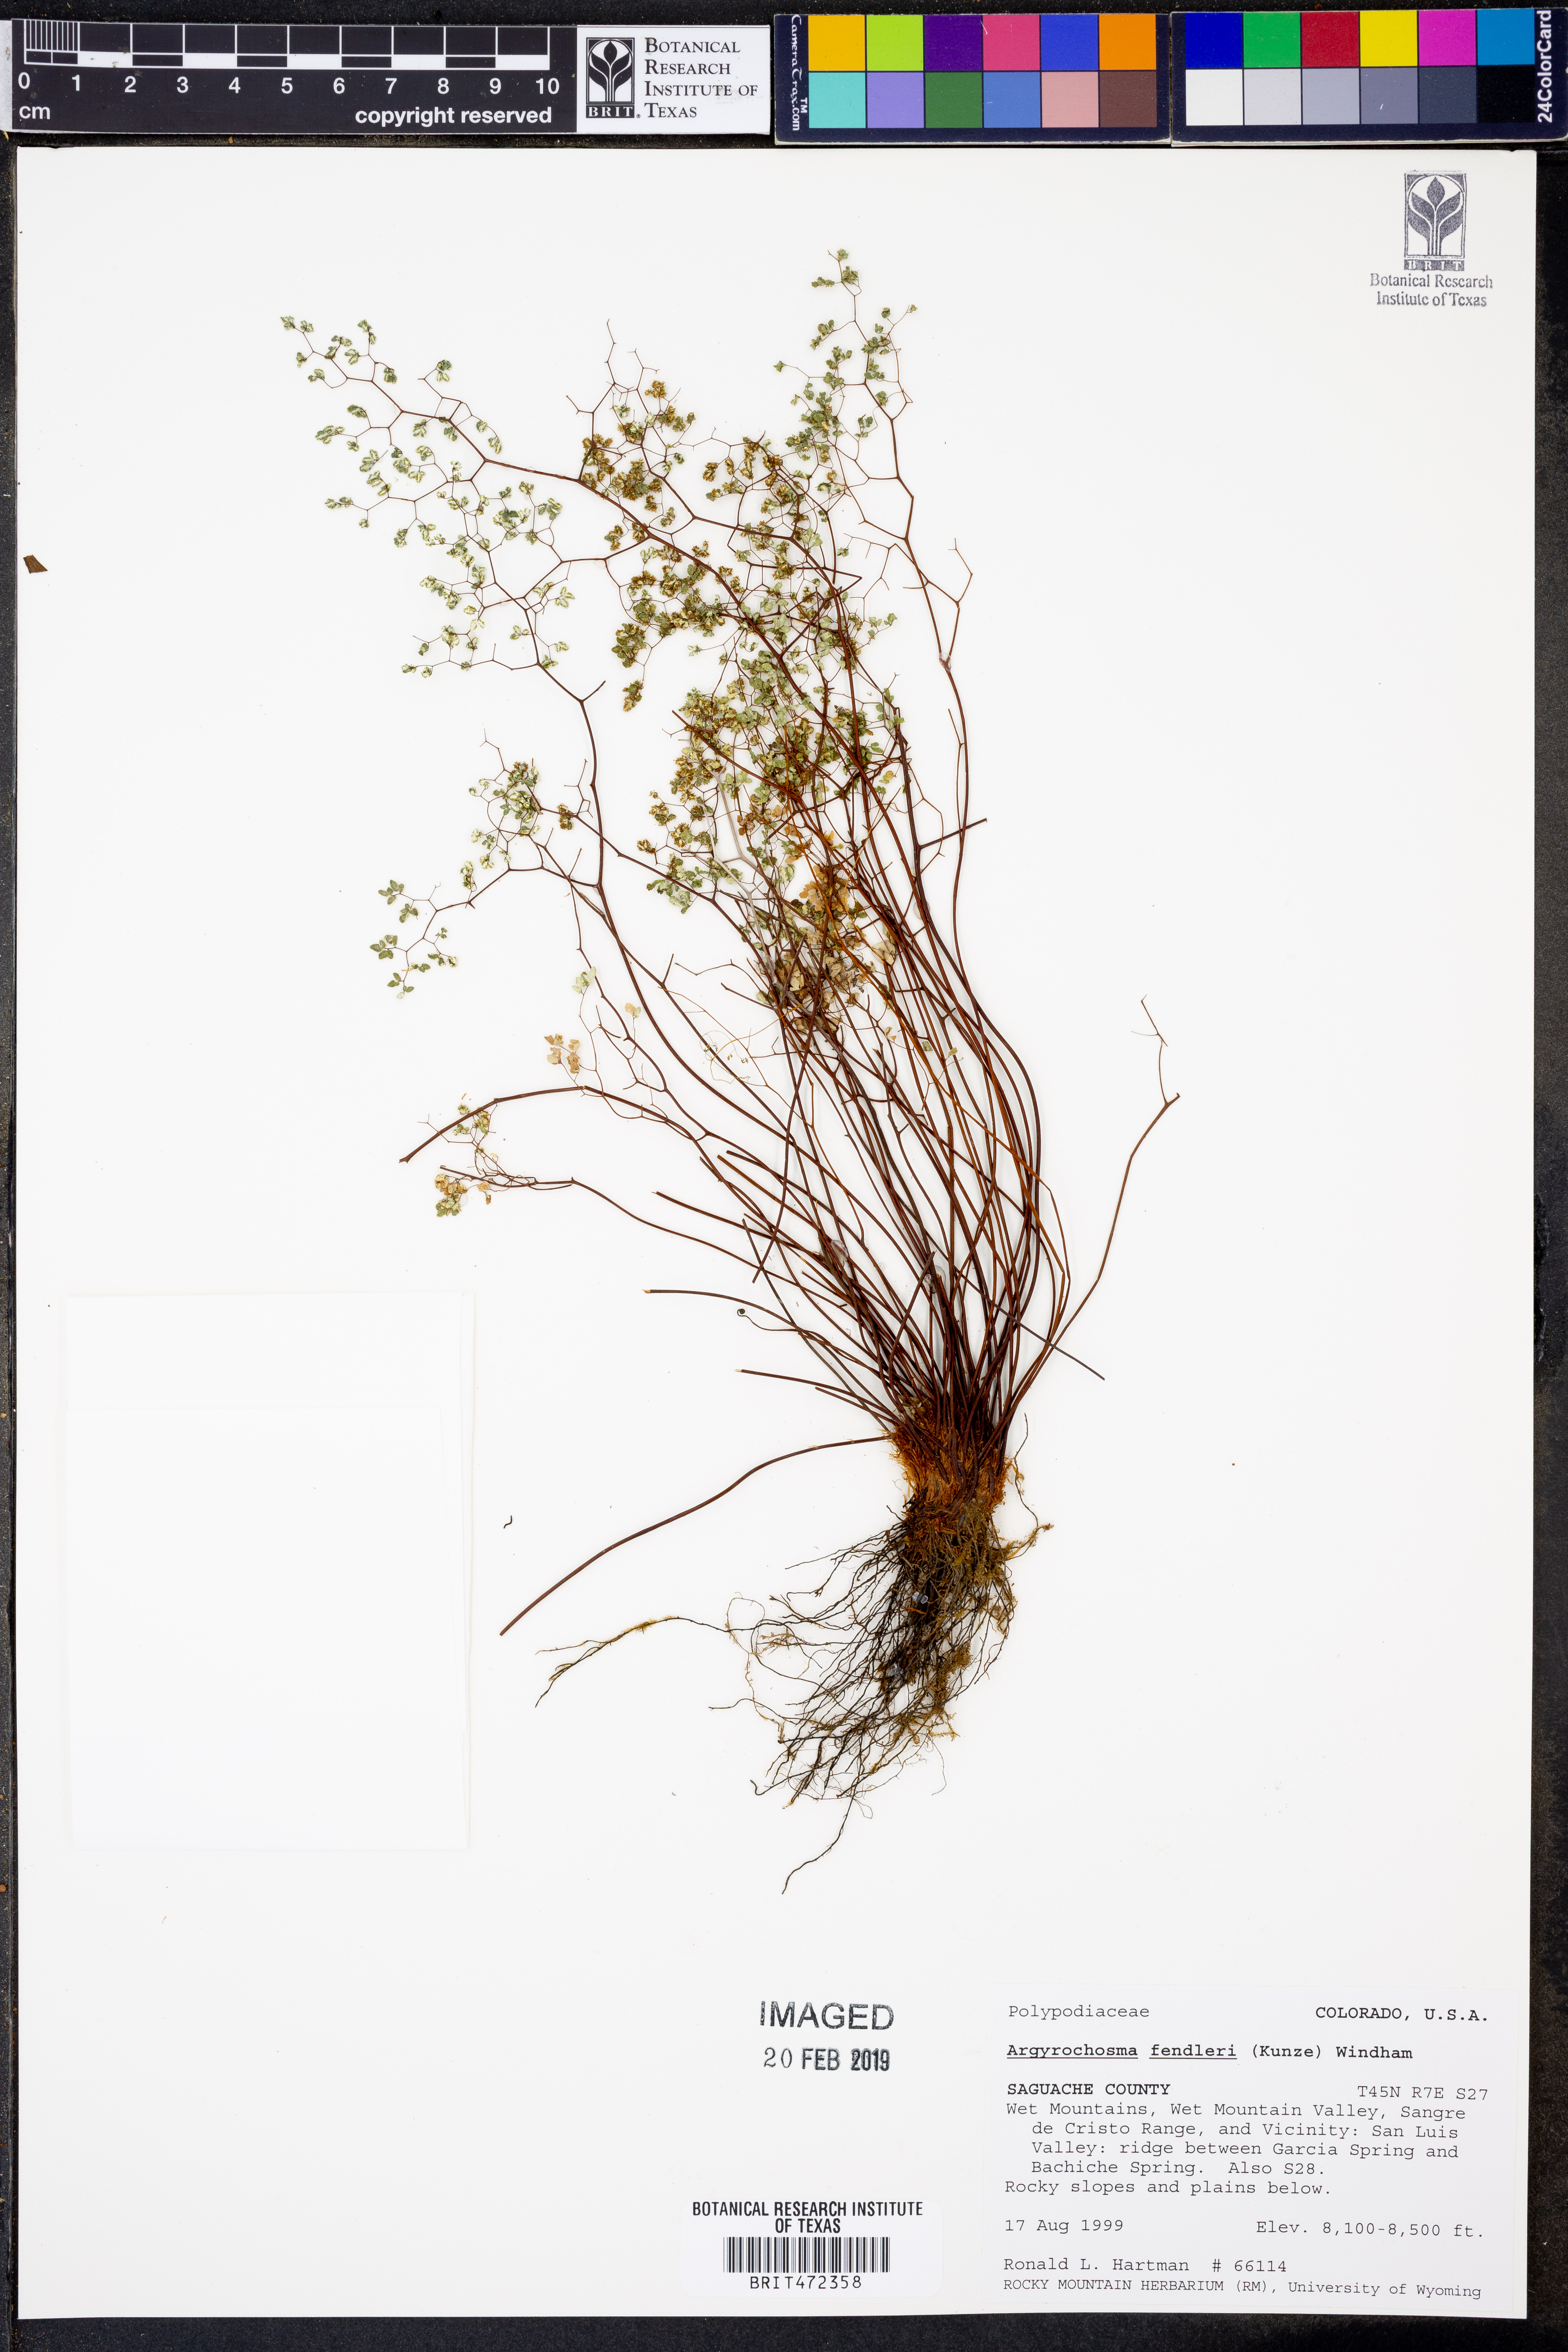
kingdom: Plantae
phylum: Tracheophyta
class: Polypodiopsida
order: Polypodiales
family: Pteridaceae
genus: Argyrochosma
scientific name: Argyrochosma fendleri
